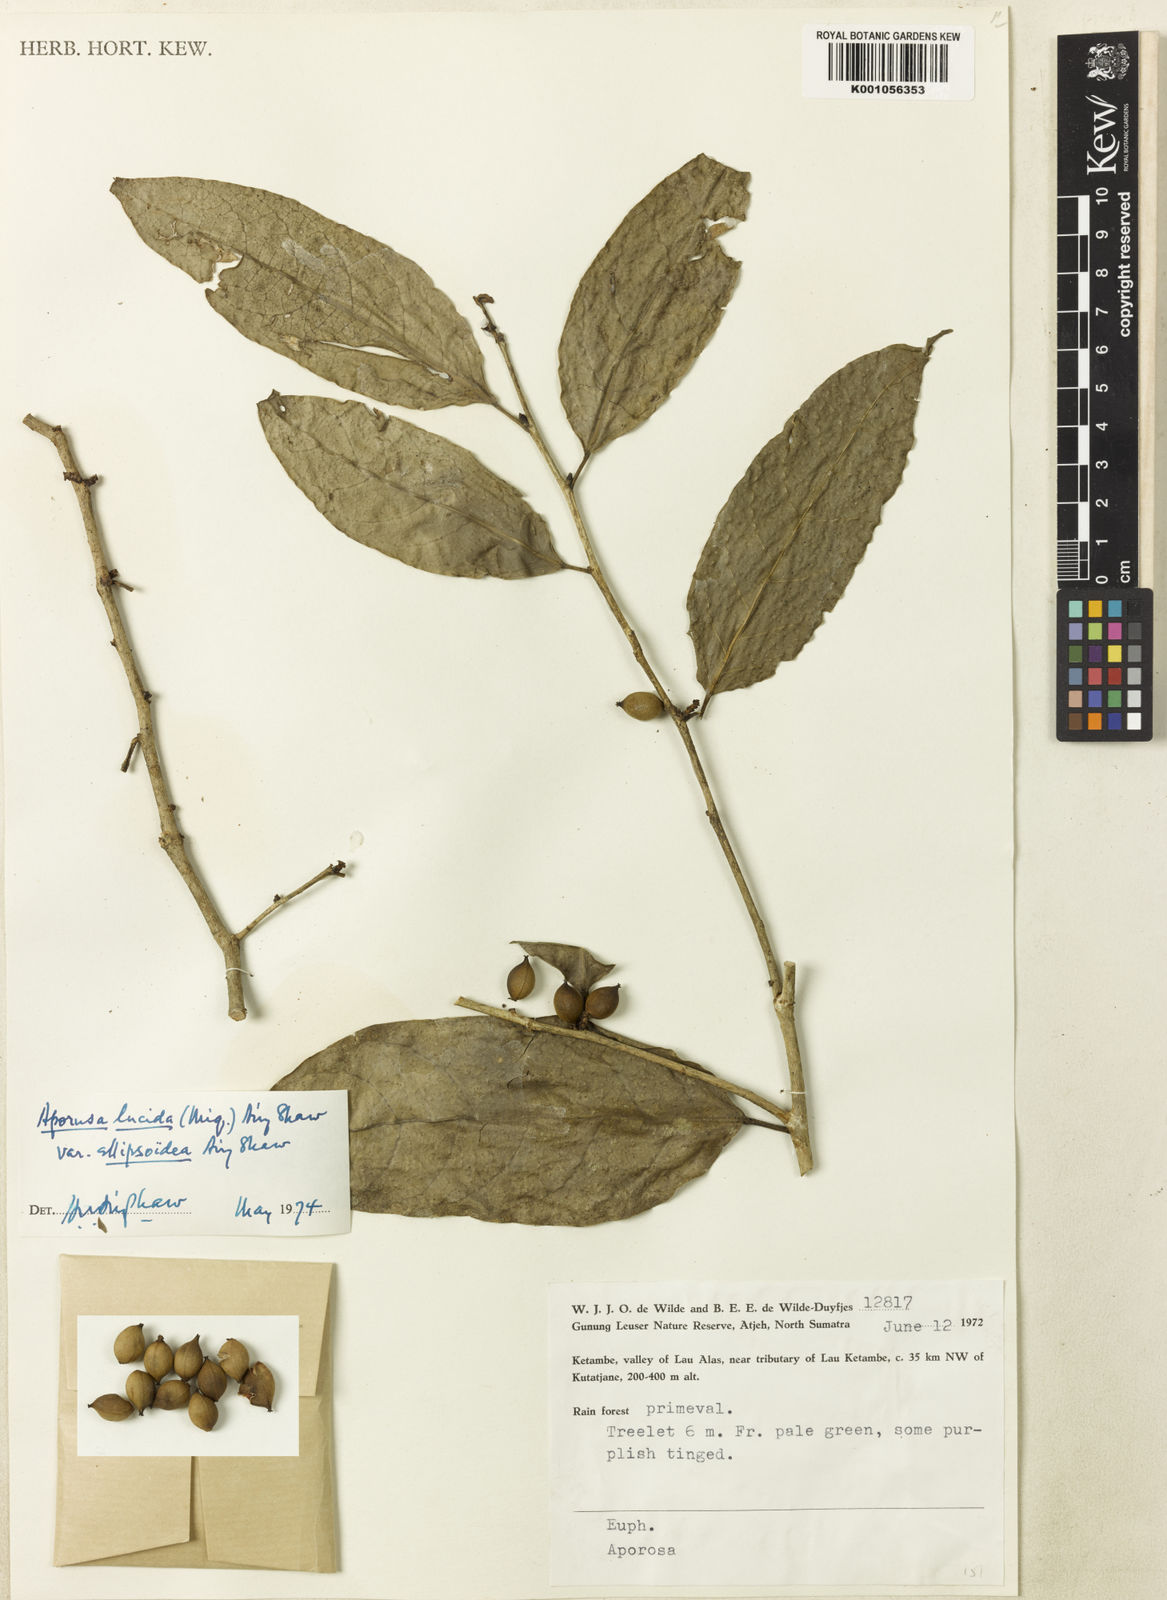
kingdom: Plantae
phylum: Tracheophyta
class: Magnoliopsida
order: Malpighiales
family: Phyllanthaceae
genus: Aporosa
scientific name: Aporosa lucida
